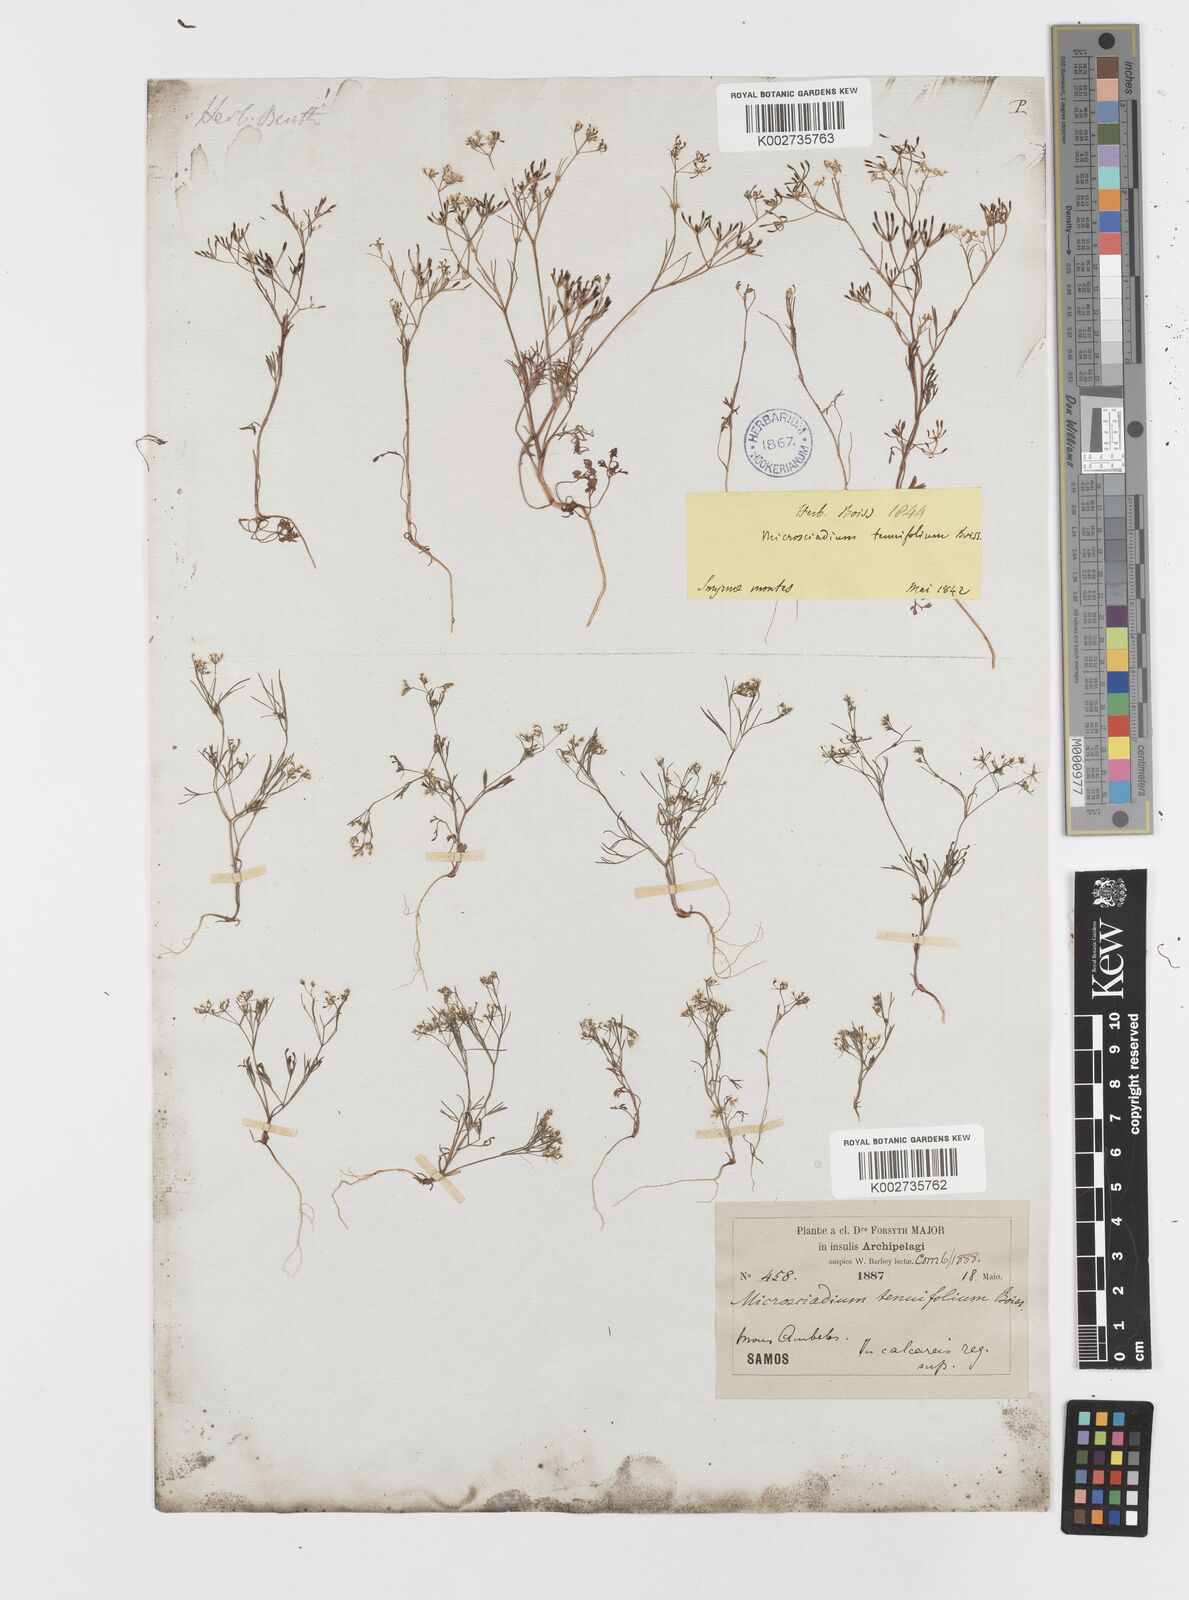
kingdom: Plantae
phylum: Tracheophyta
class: Magnoliopsida
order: Apiales
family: Apiaceae
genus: Microsciadium
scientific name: Microsciadium minutum
